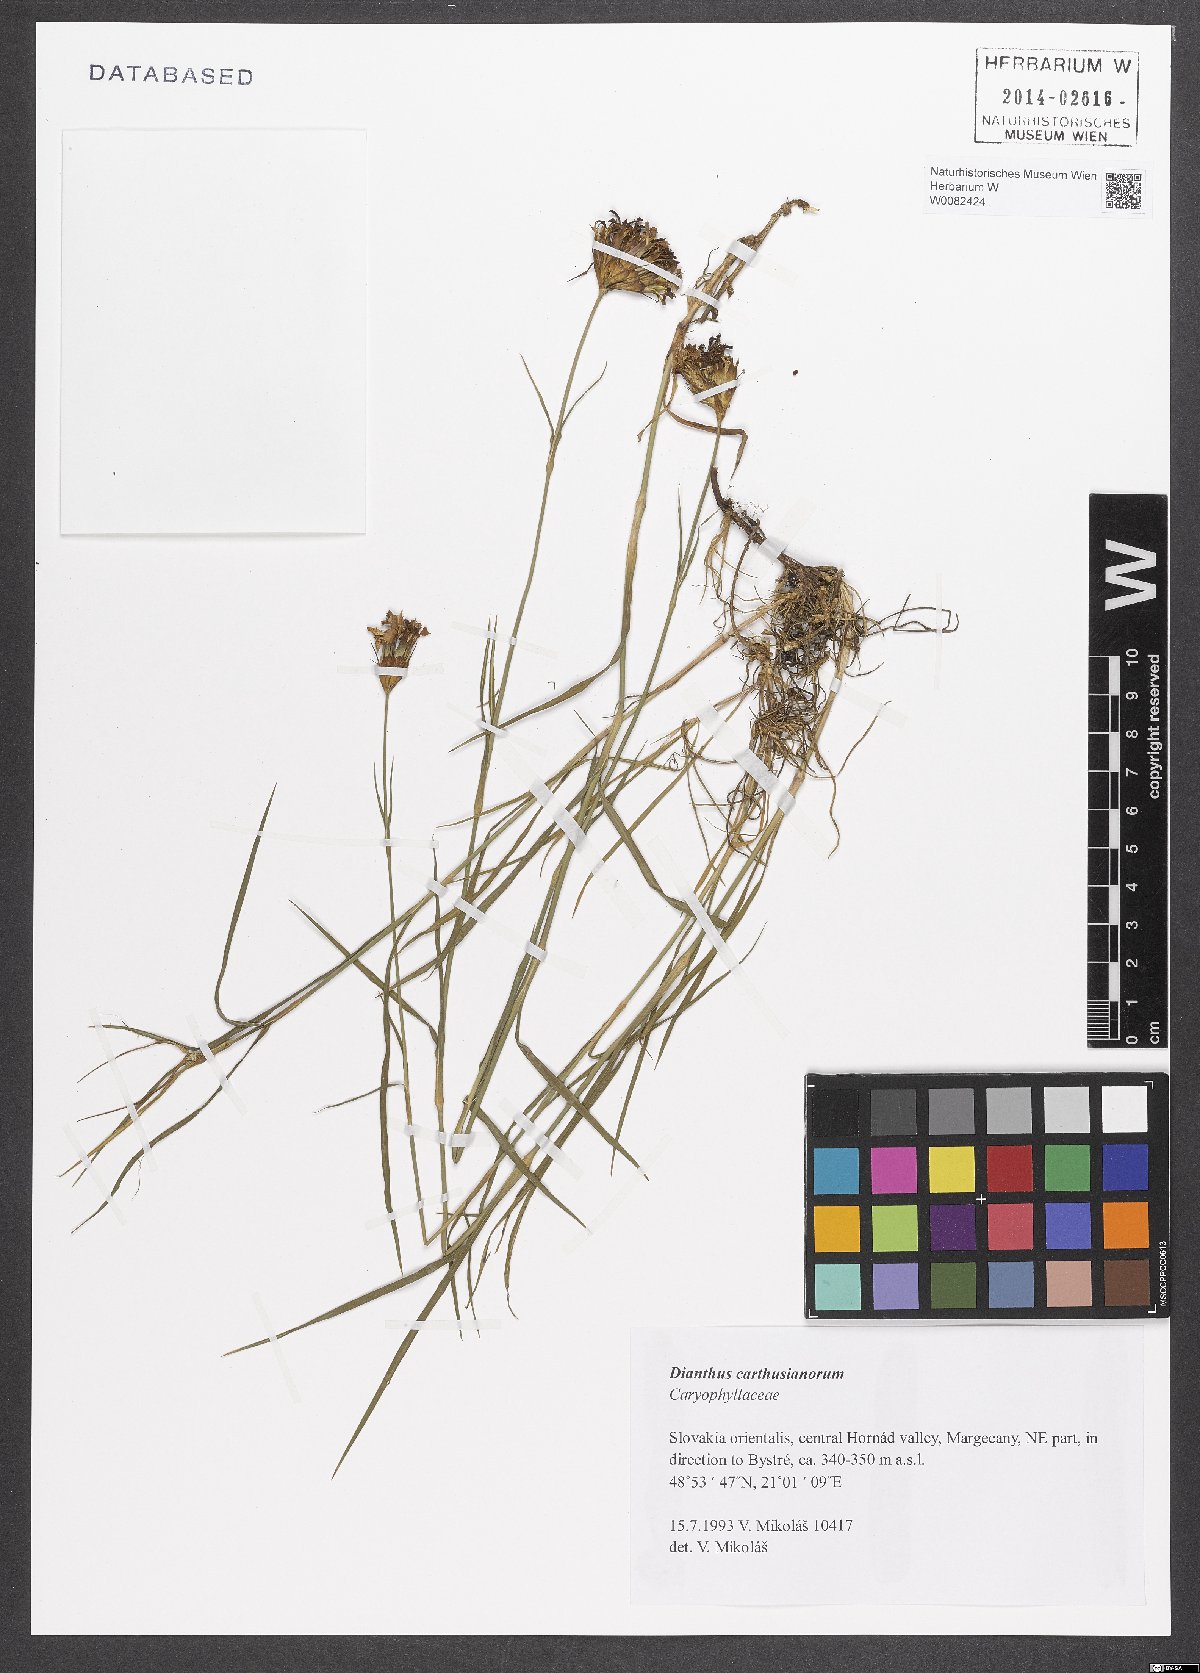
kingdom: Plantae
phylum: Tracheophyta
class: Magnoliopsida
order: Caryophyllales
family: Caryophyllaceae
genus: Dianthus
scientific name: Dianthus carthusianorum
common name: Carthusian pink
